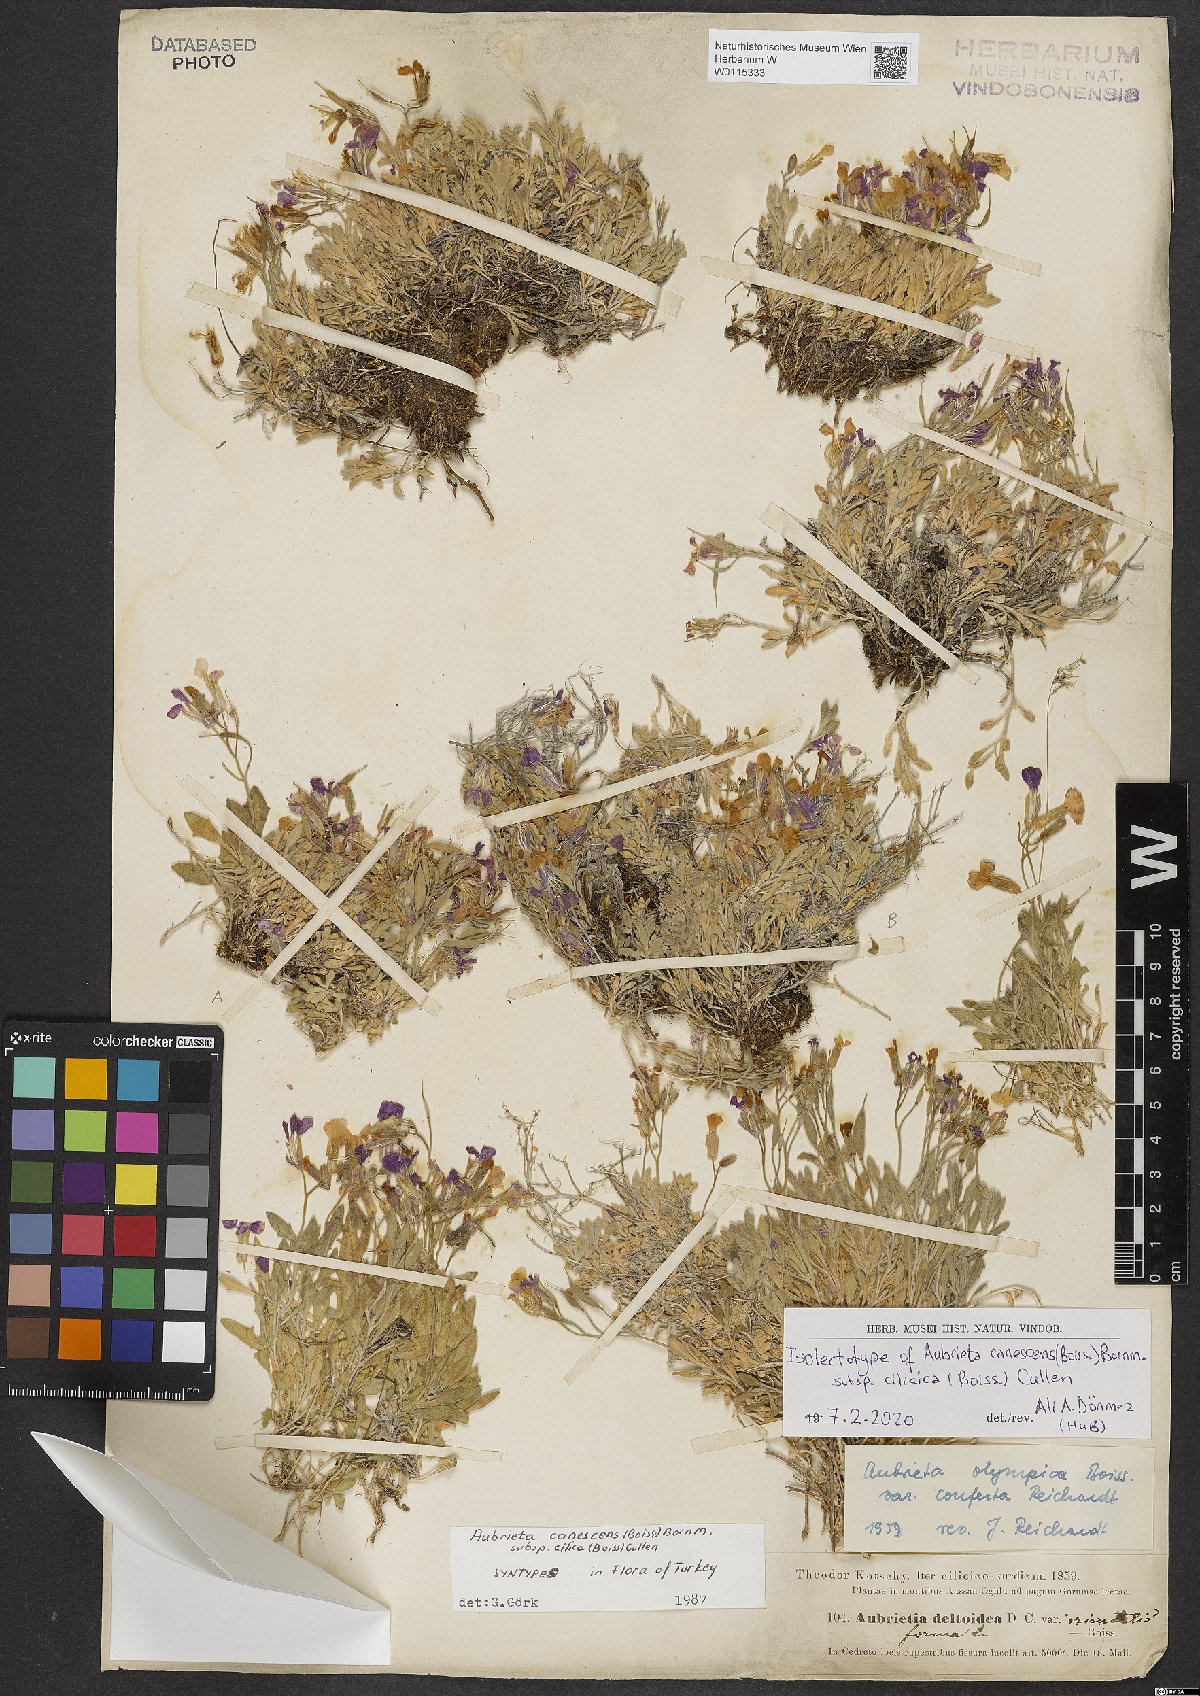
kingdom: Plantae
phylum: Tracheophyta
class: Magnoliopsida
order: Brassicales
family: Brassicaceae
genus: Aubrieta
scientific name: Aubrieta deltoidea
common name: Aubretia
